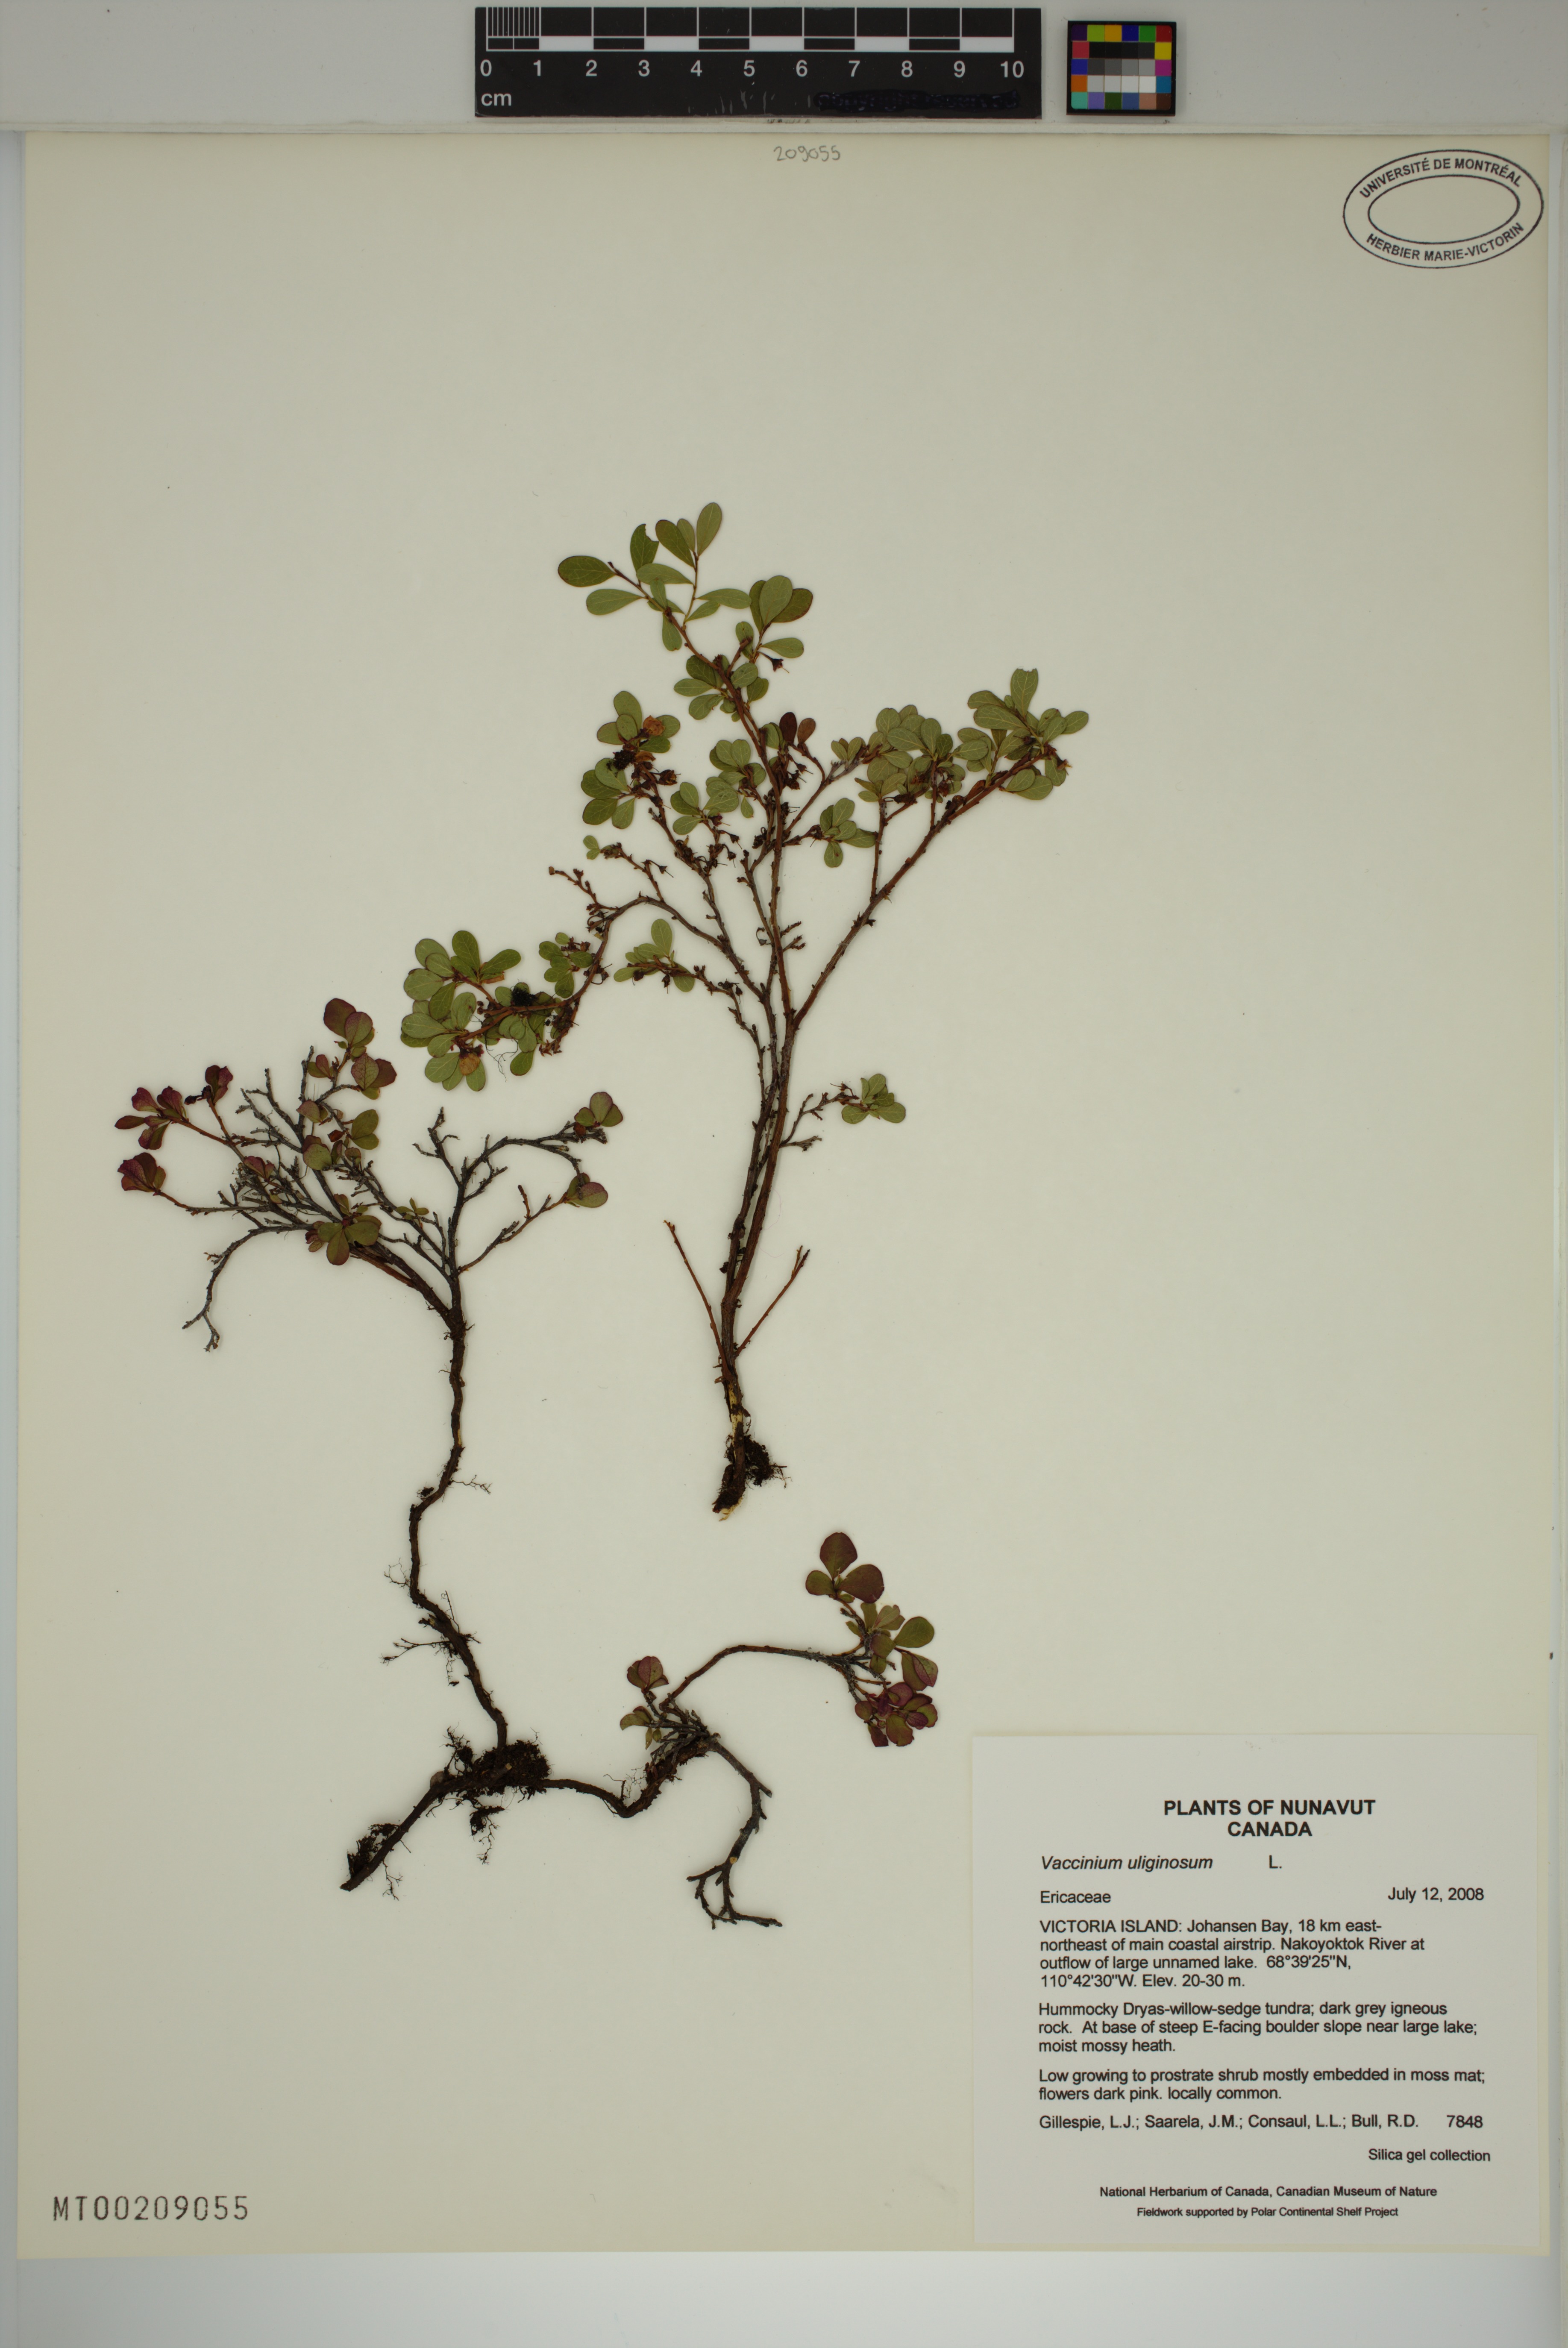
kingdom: Plantae
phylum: Tracheophyta
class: Magnoliopsida
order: Ericales
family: Ericaceae
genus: Vaccinium
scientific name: Vaccinium uliginosum
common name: Bog bilberry
